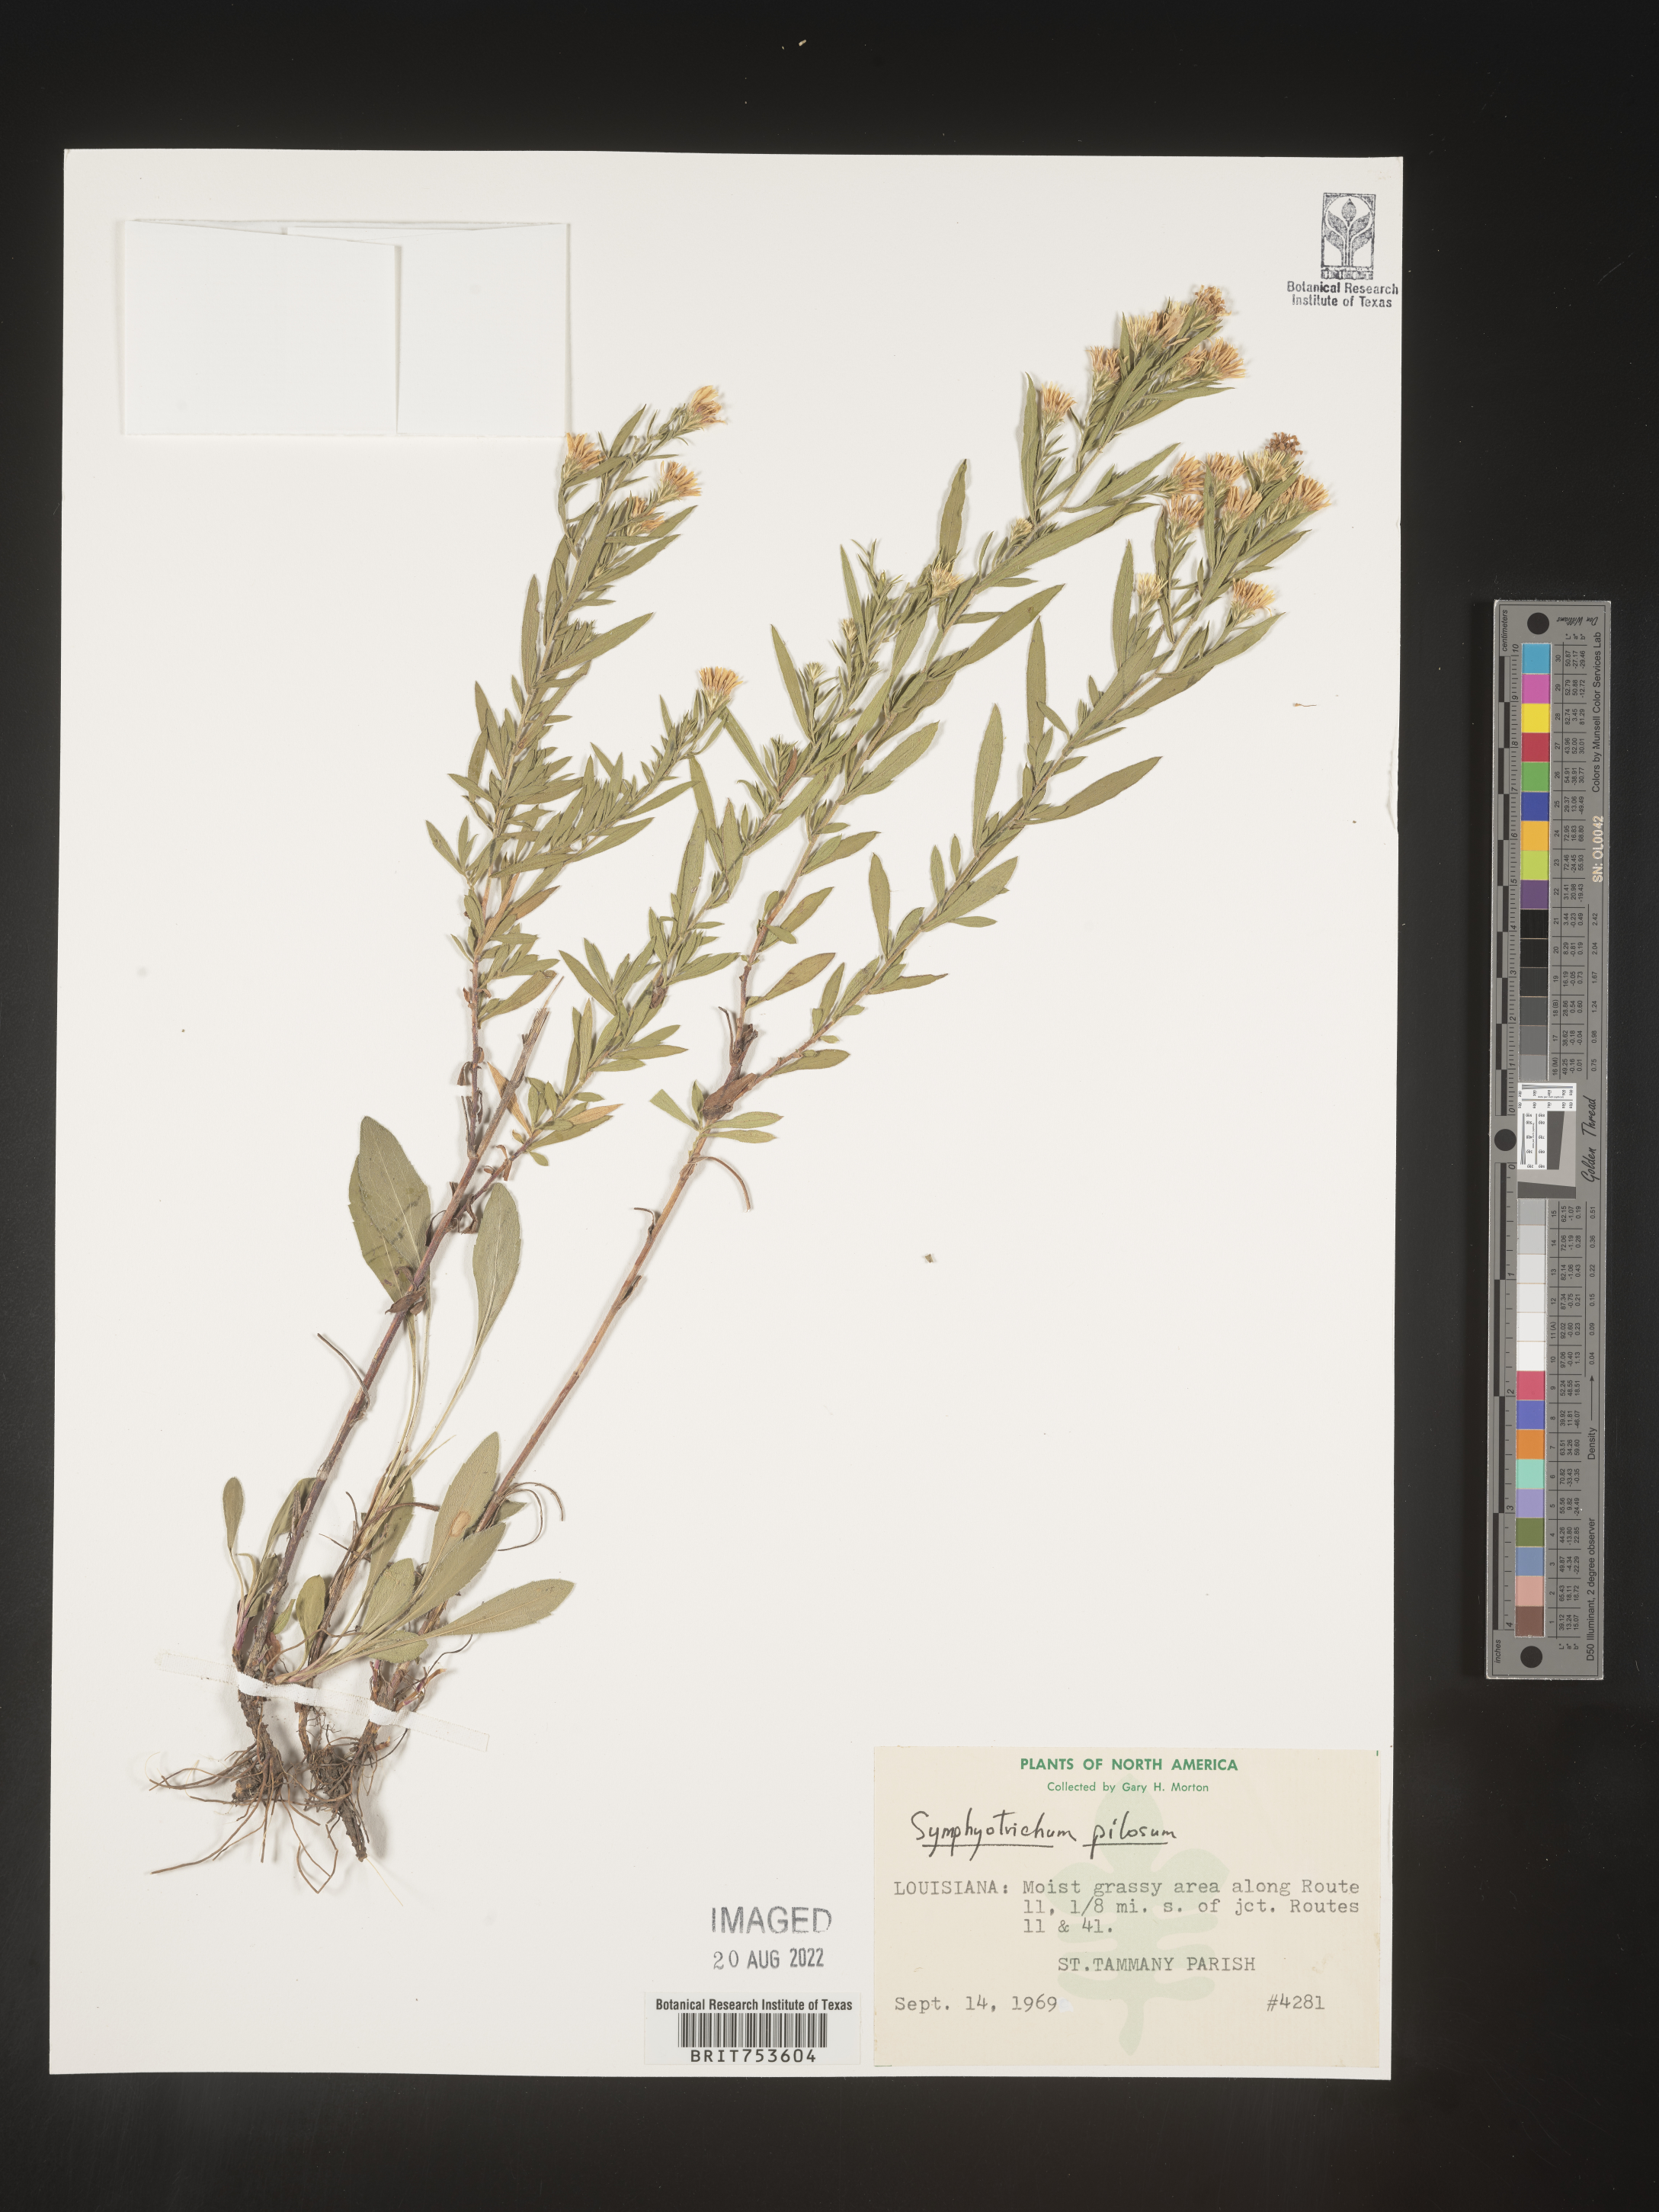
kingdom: Plantae
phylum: Tracheophyta
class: Magnoliopsida
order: Asterales
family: Asteraceae
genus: Symphyotrichum
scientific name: Symphyotrichum pilosum
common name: Awl aster
